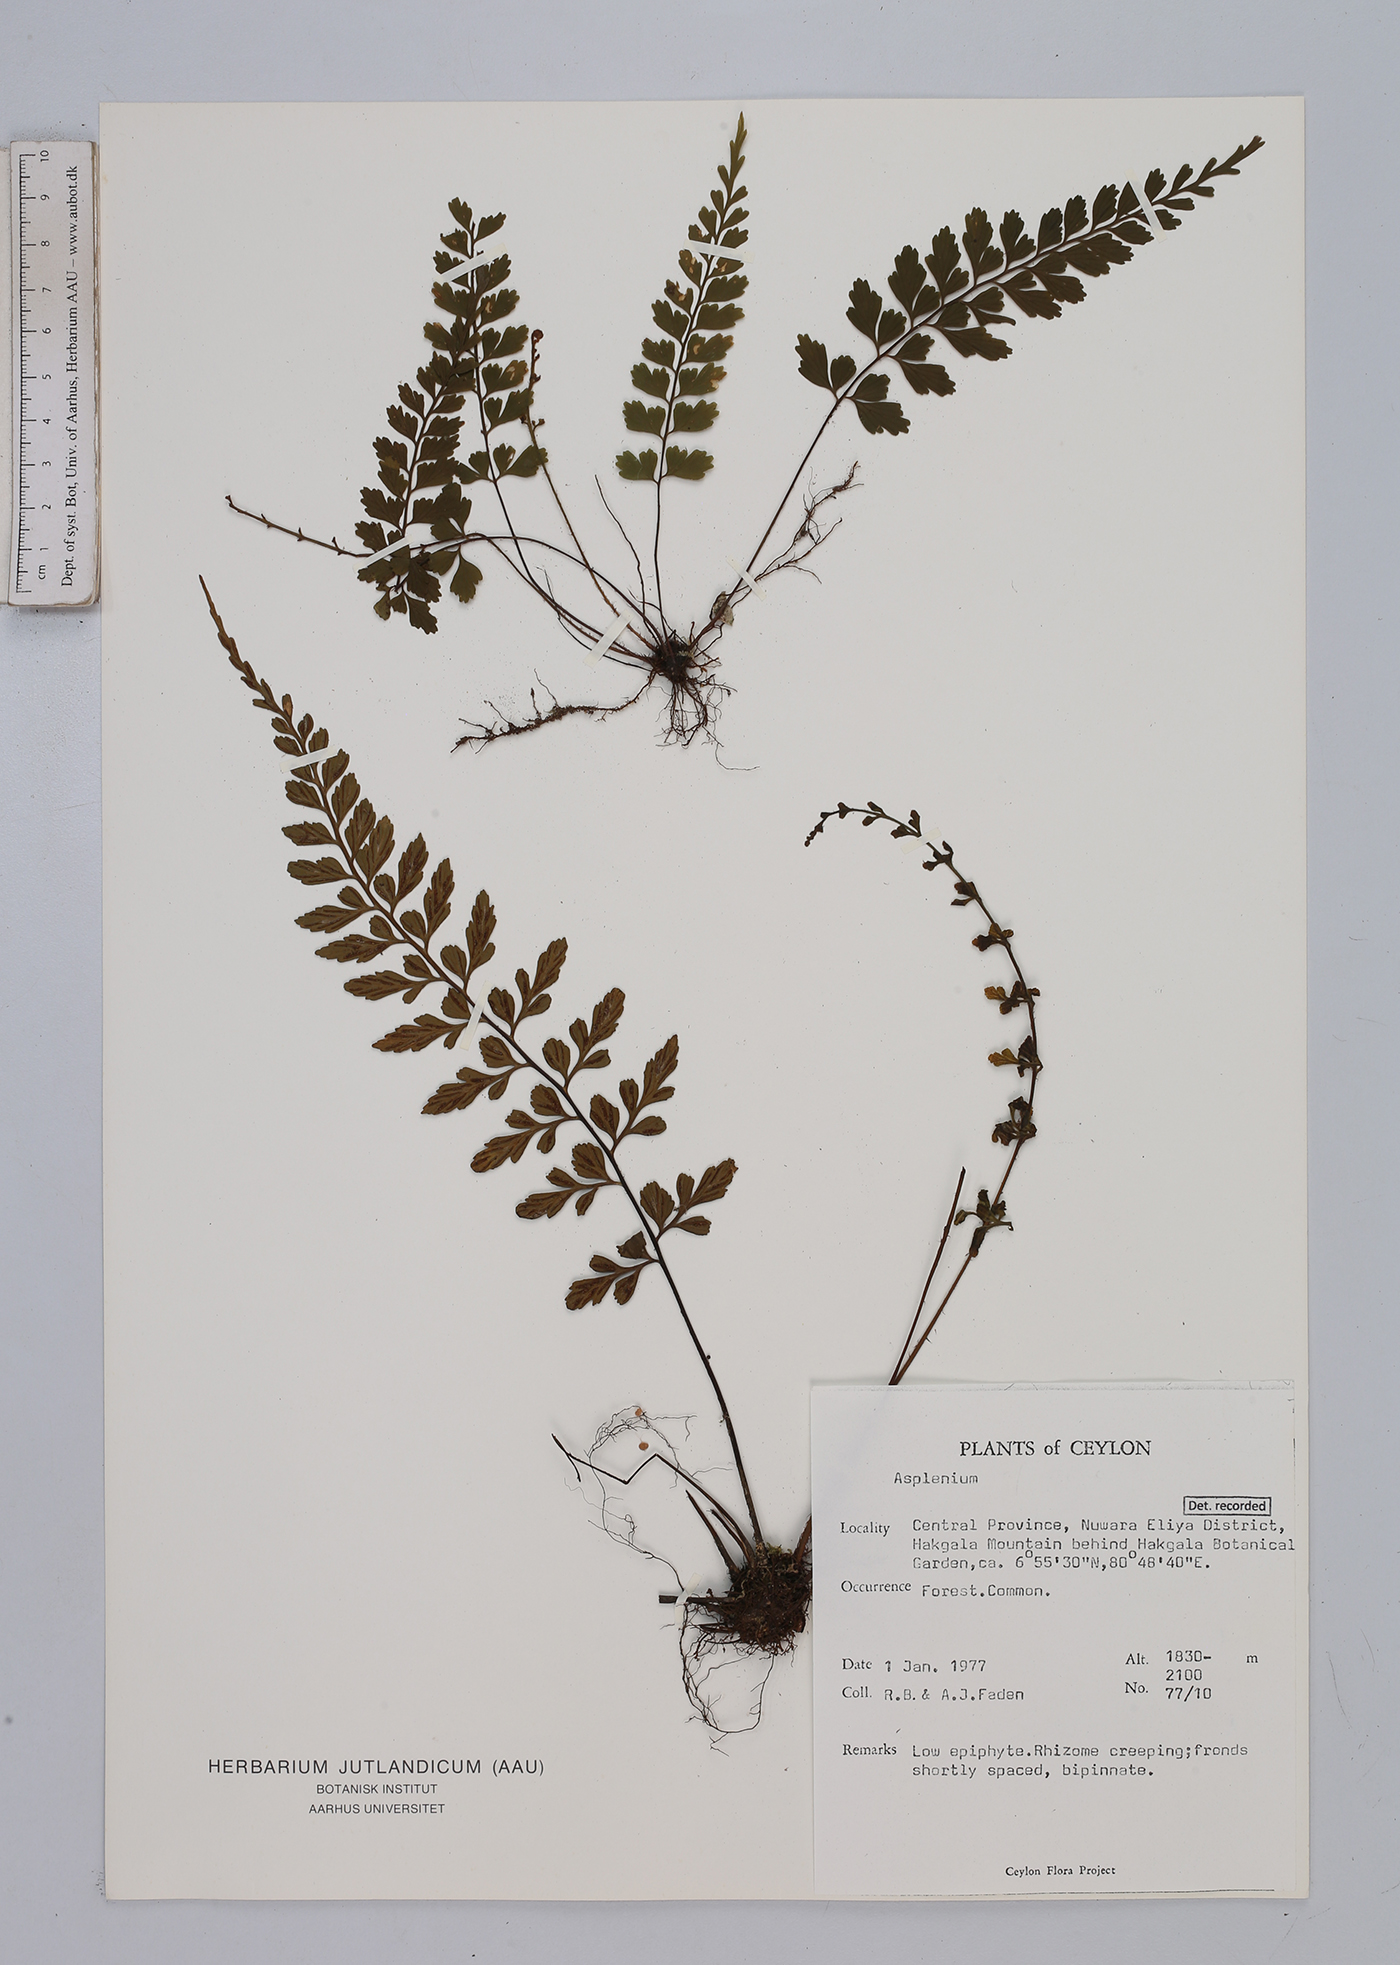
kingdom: Plantae
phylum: Tracheophyta
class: Polypodiopsida
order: Polypodiales
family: Aspleniaceae
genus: Asplenium
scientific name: Asplenium
